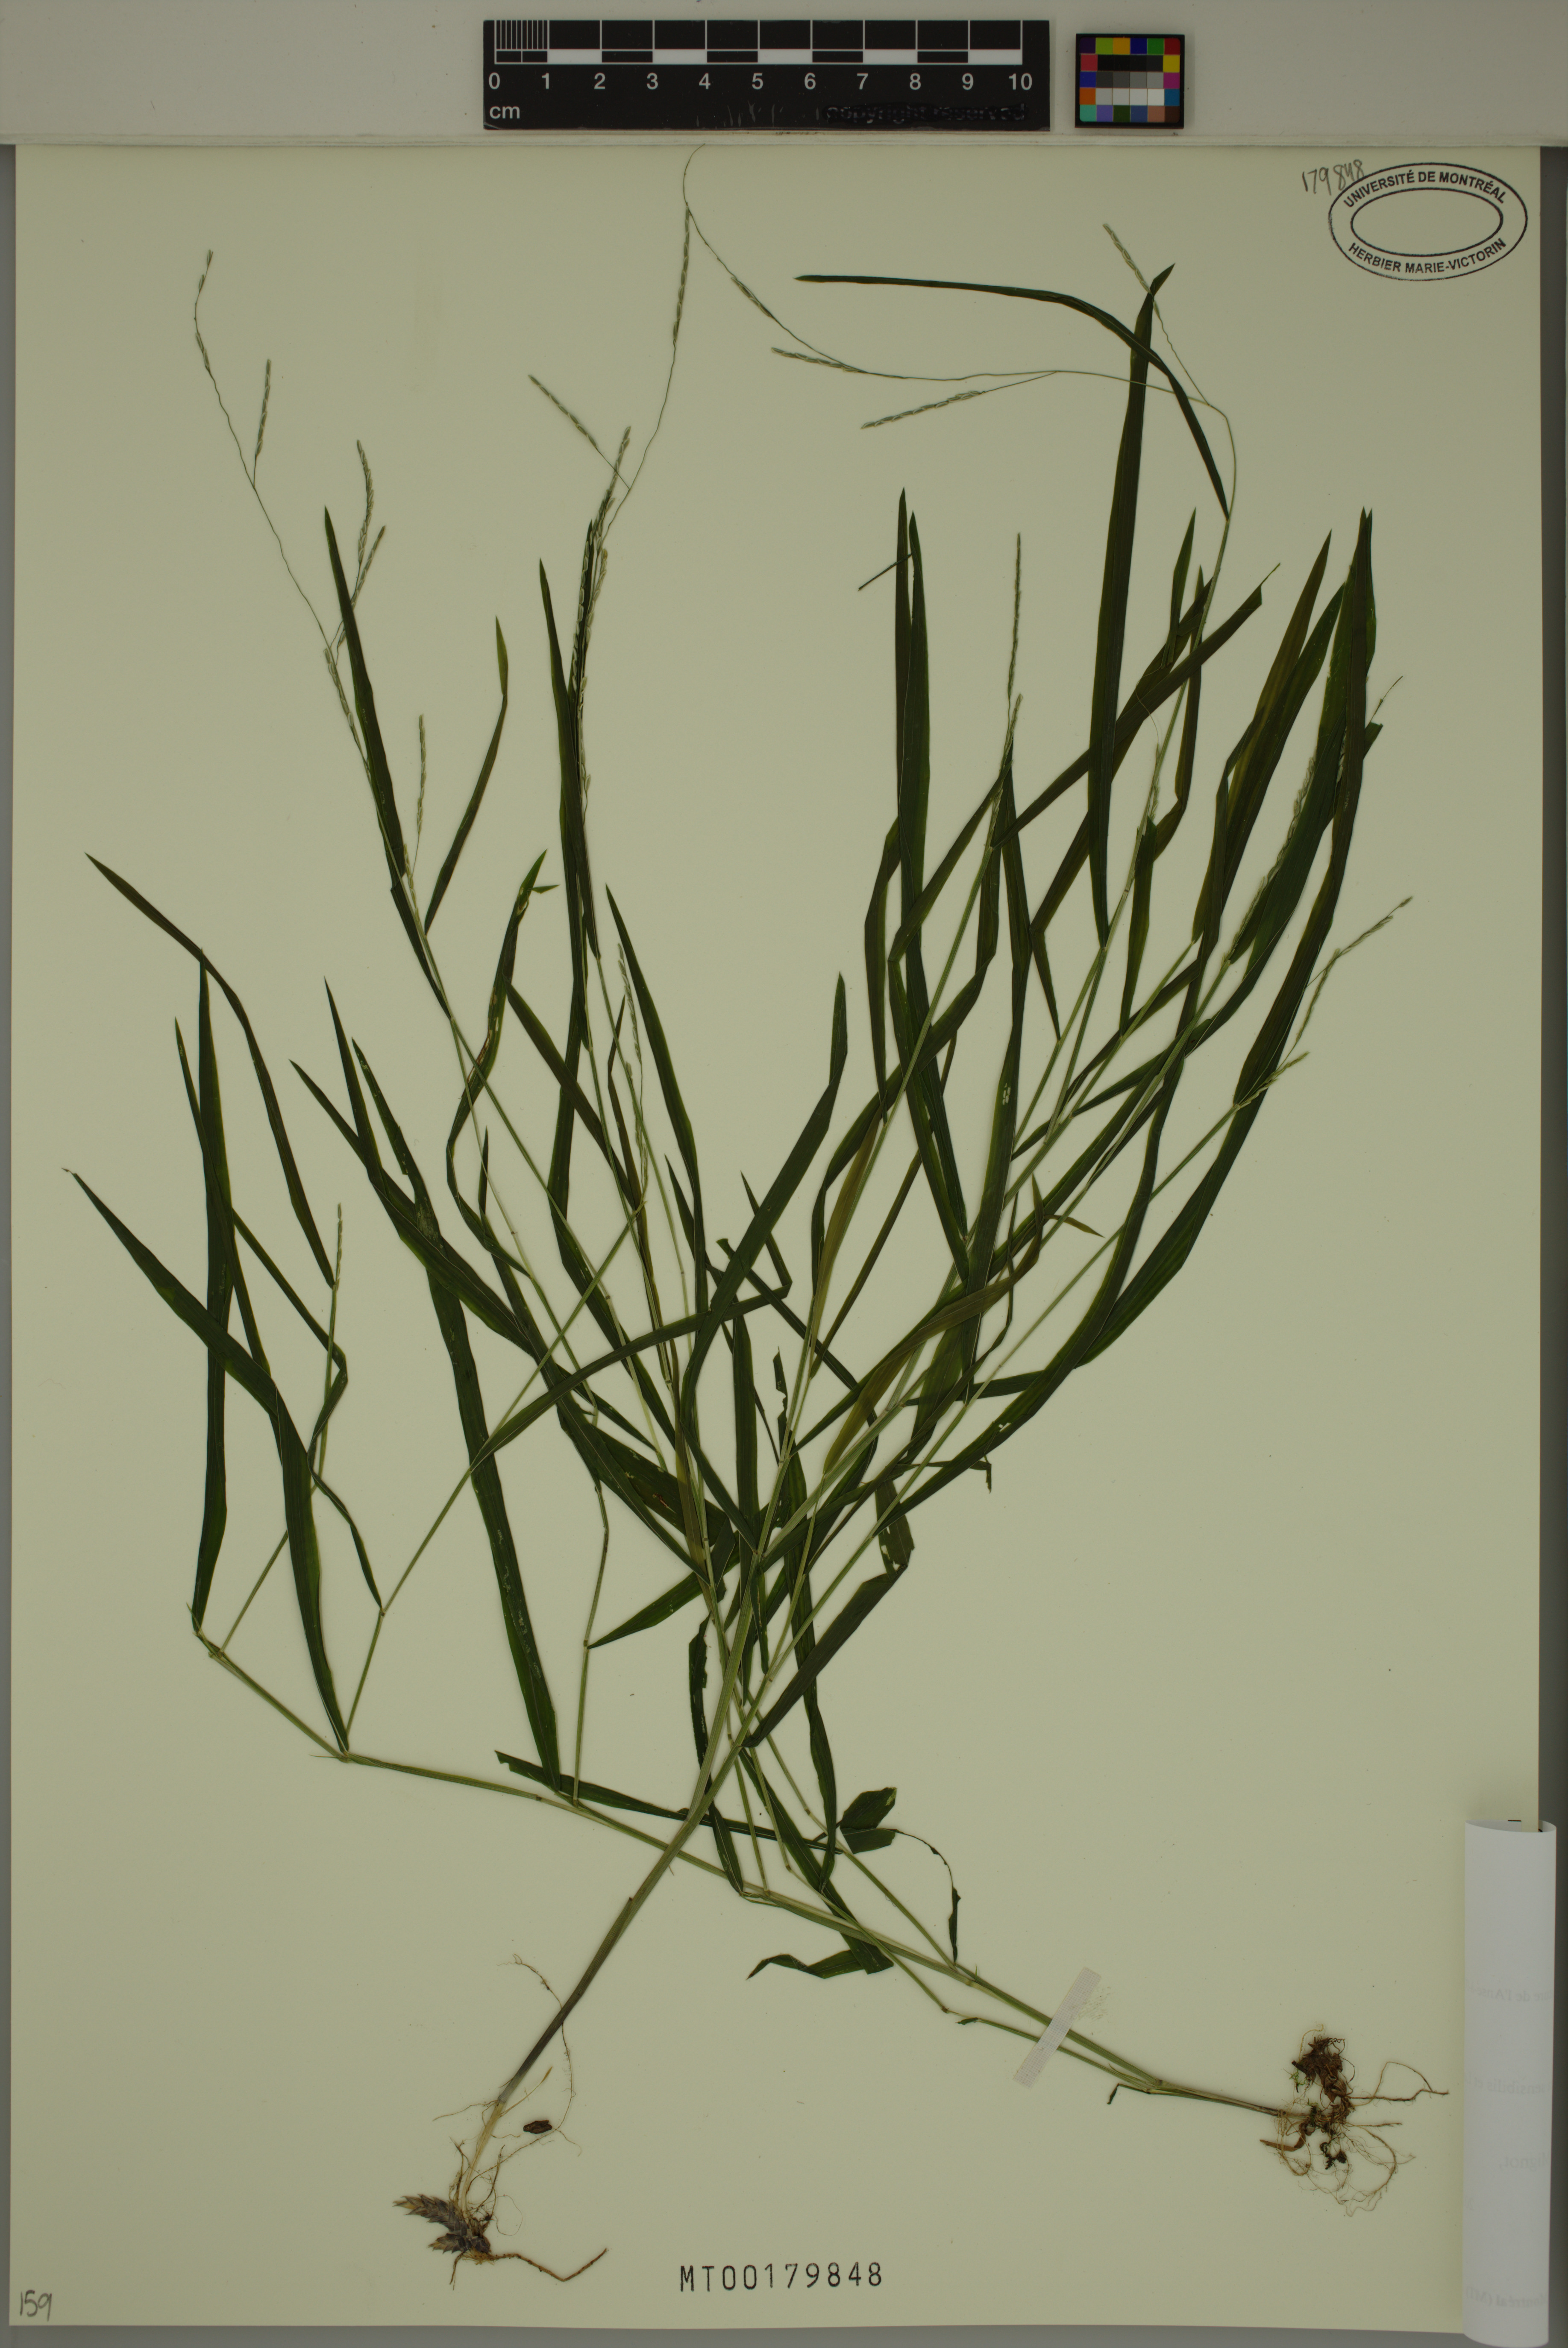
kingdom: Plantae
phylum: Tracheophyta
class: Liliopsida
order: Poales
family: Poaceae
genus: Leersia
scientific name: Leersia virginica
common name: White cutgrass
